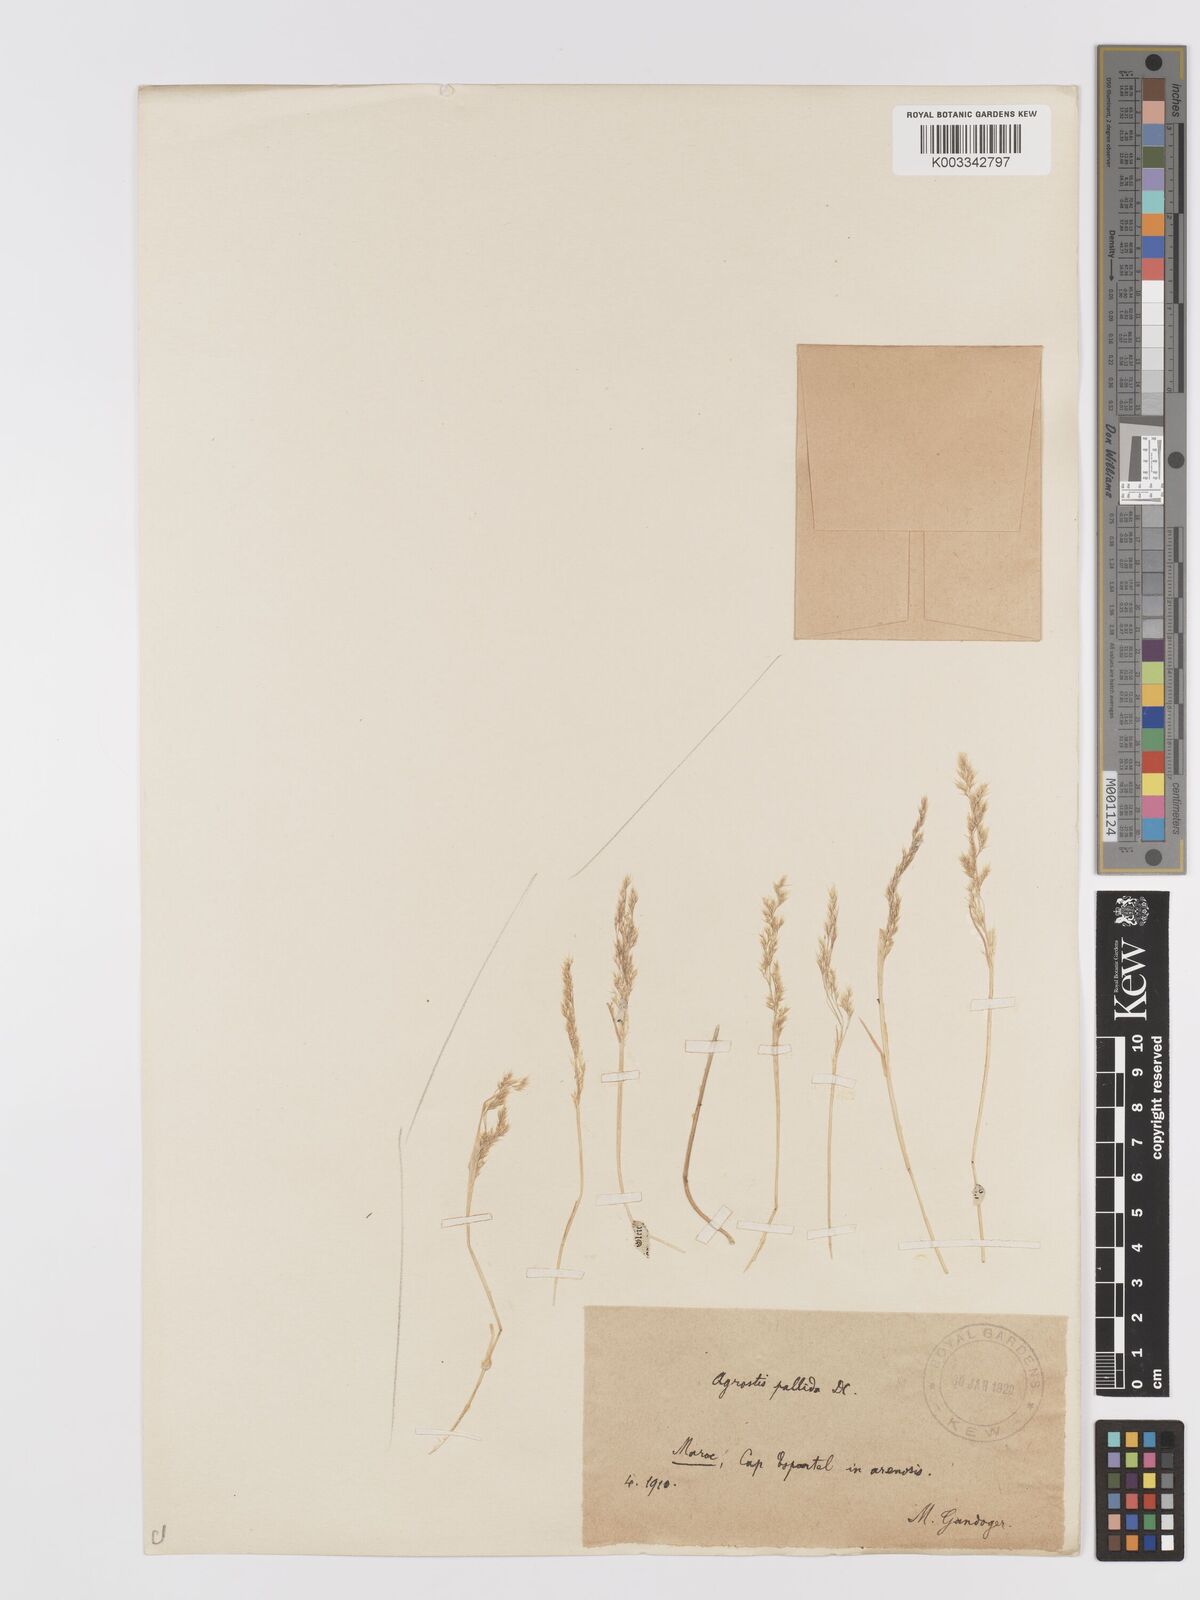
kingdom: Plantae
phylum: Tracheophyta
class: Liliopsida
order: Poales
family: Poaceae
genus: Agrostis
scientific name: Agrostis pourretii
